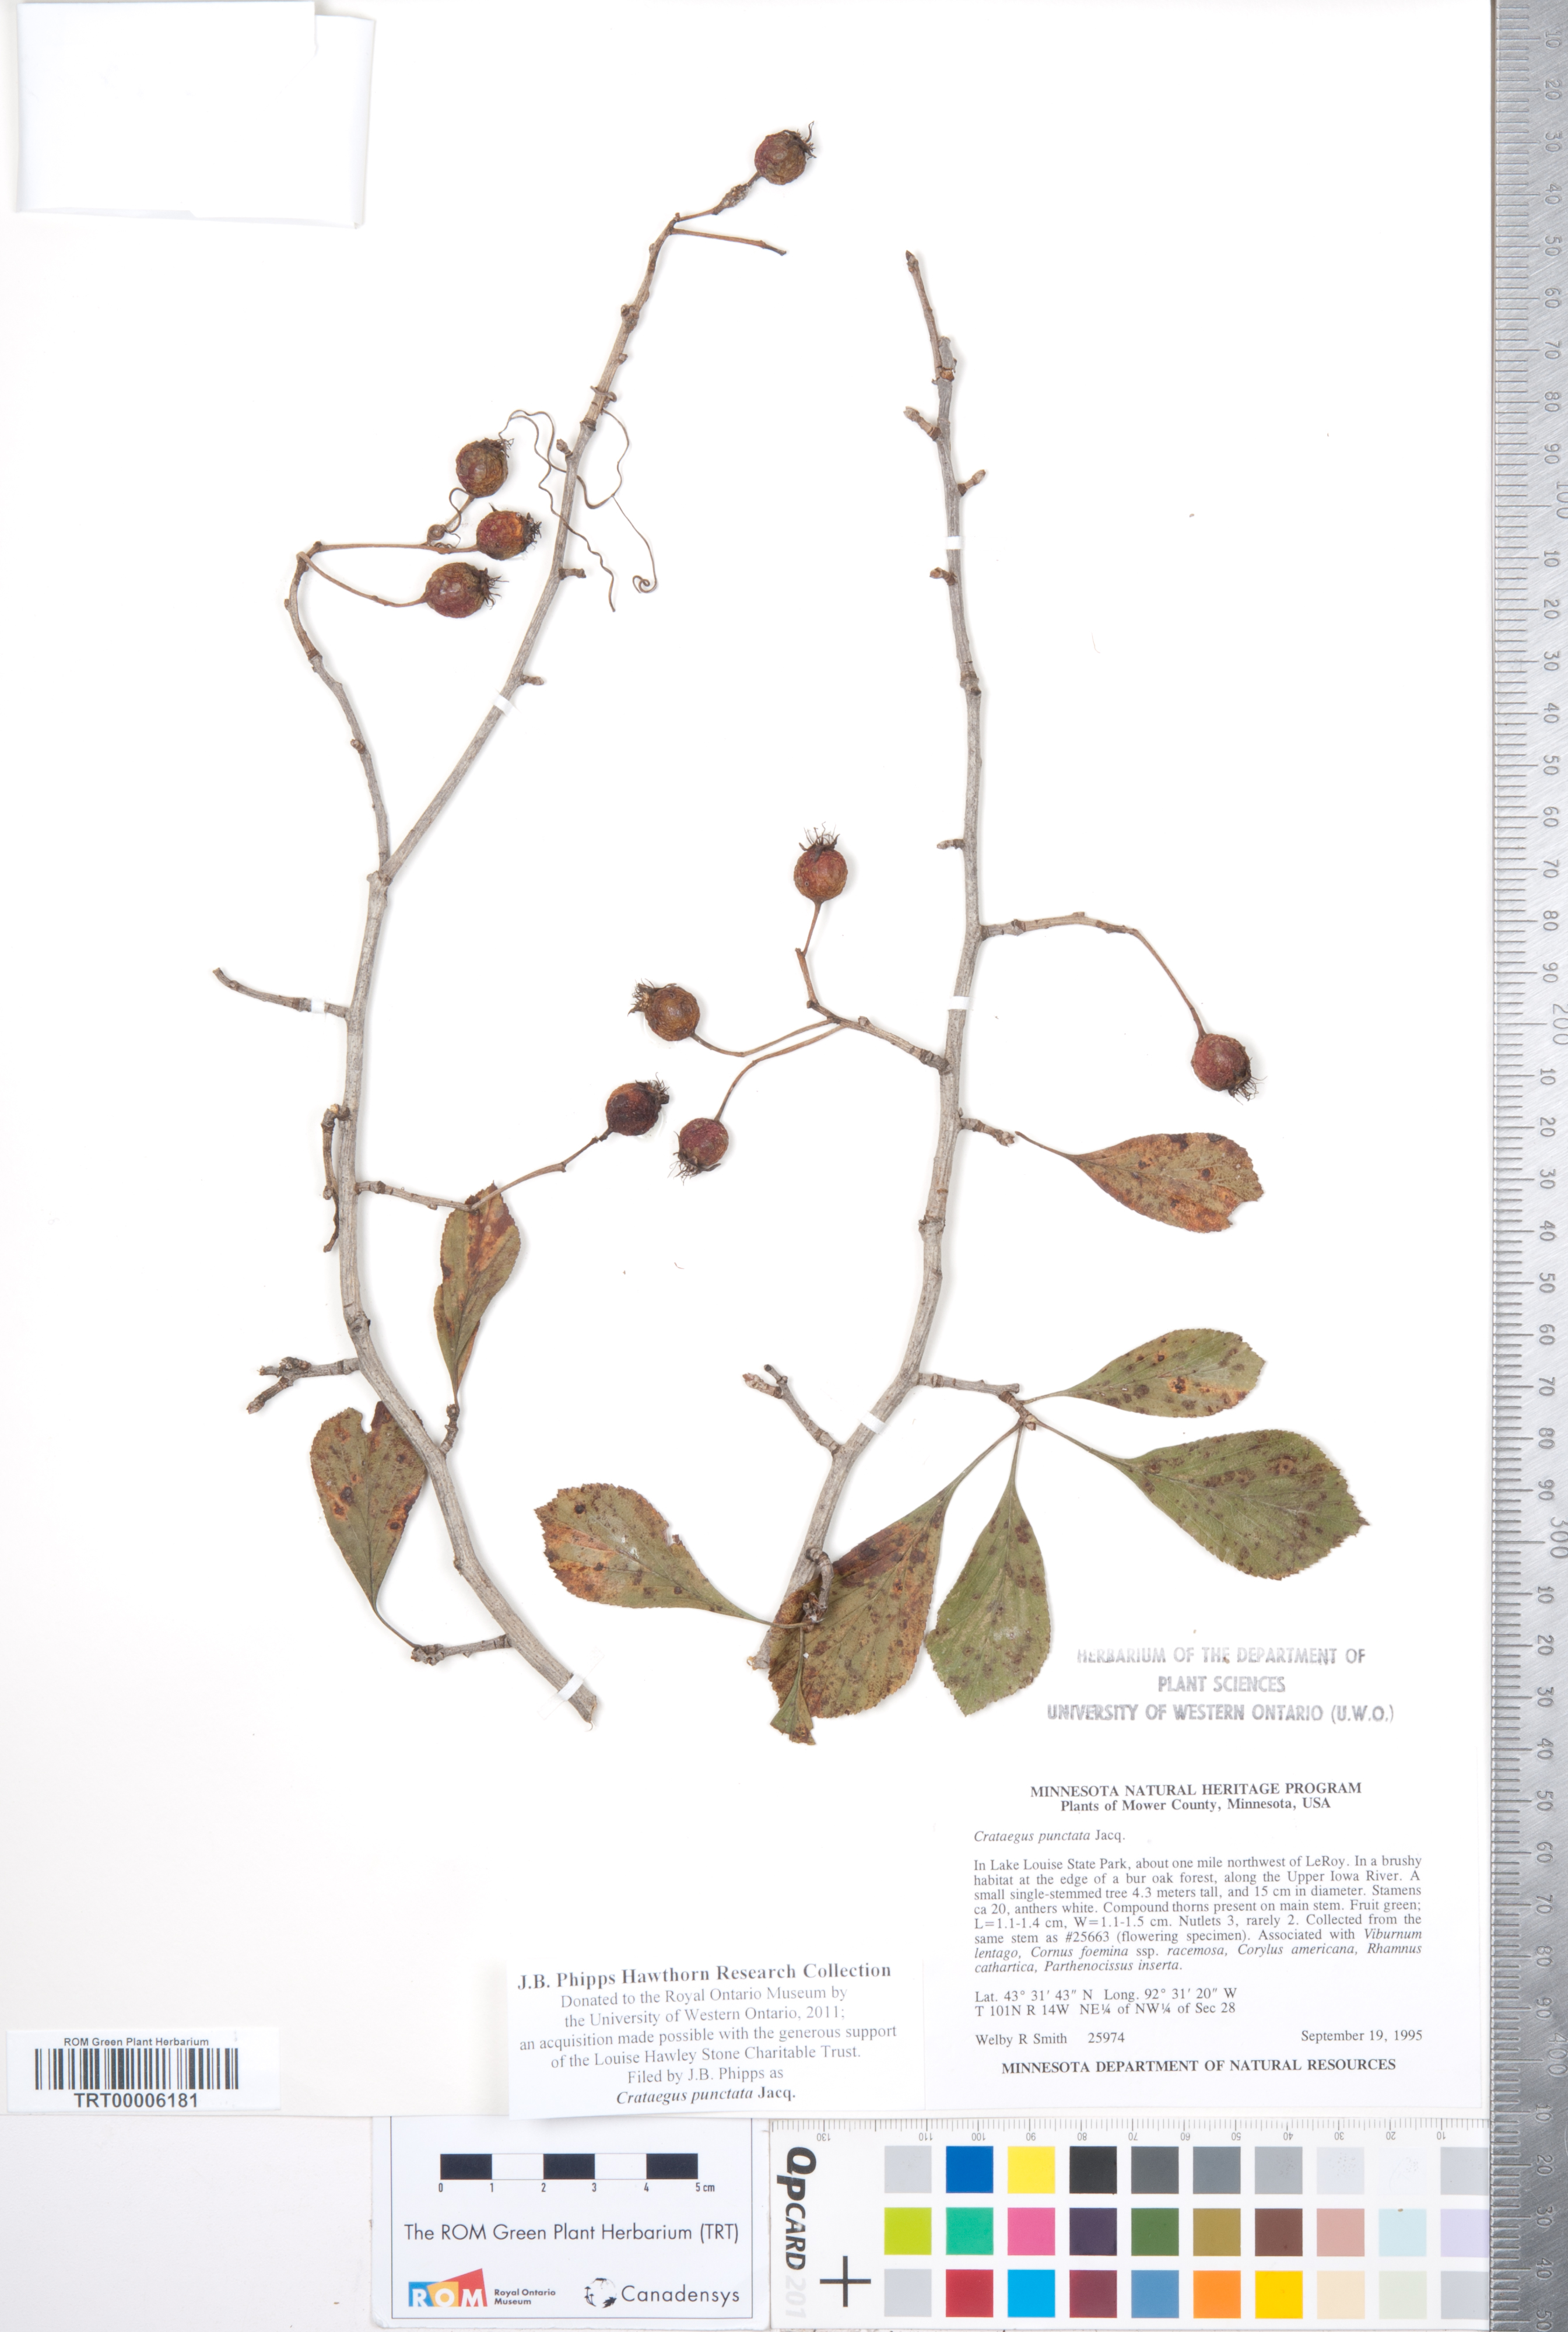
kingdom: Plantae
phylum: Tracheophyta
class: Magnoliopsida
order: Rosales
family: Rosaceae
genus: Crataegus
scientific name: Crataegus punctata
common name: Dotted hawthorn
